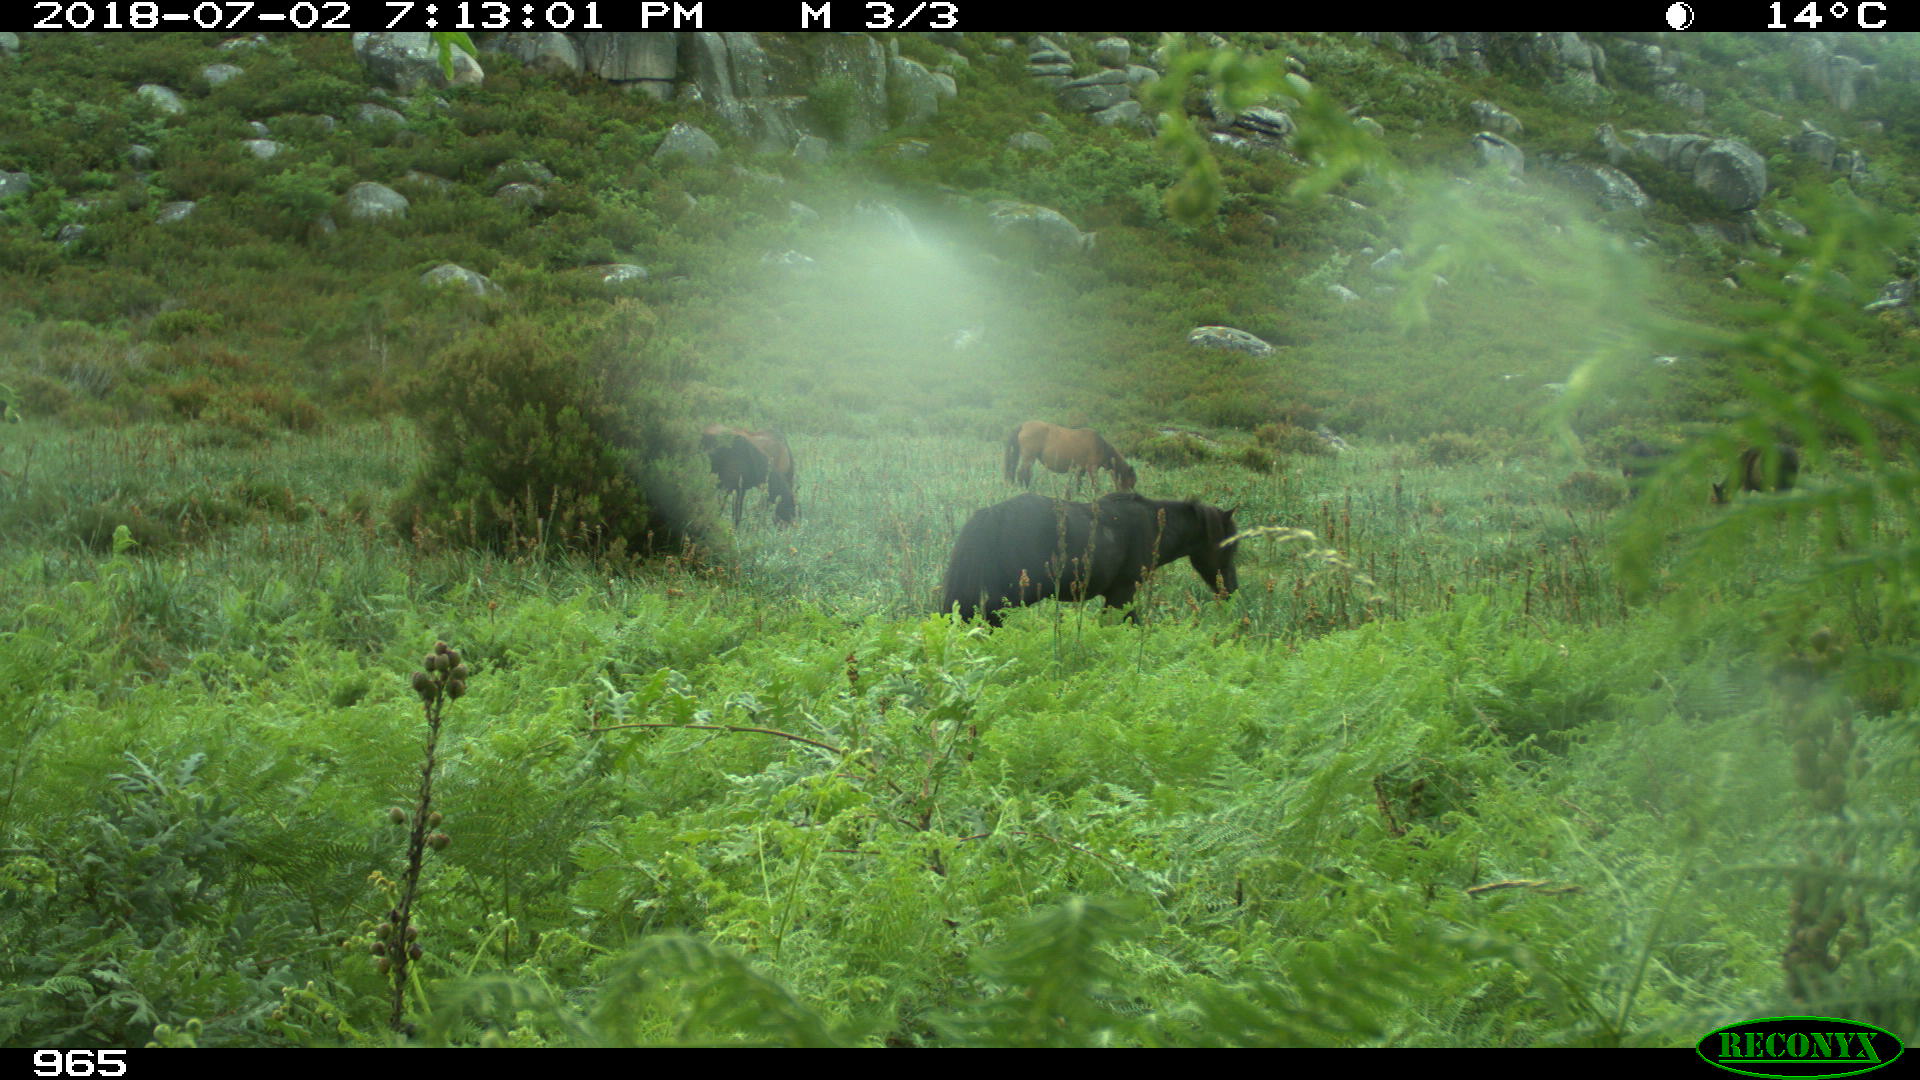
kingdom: Animalia
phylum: Chordata
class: Mammalia
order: Perissodactyla
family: Equidae
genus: Equus
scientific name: Equus caballus
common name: Horse
